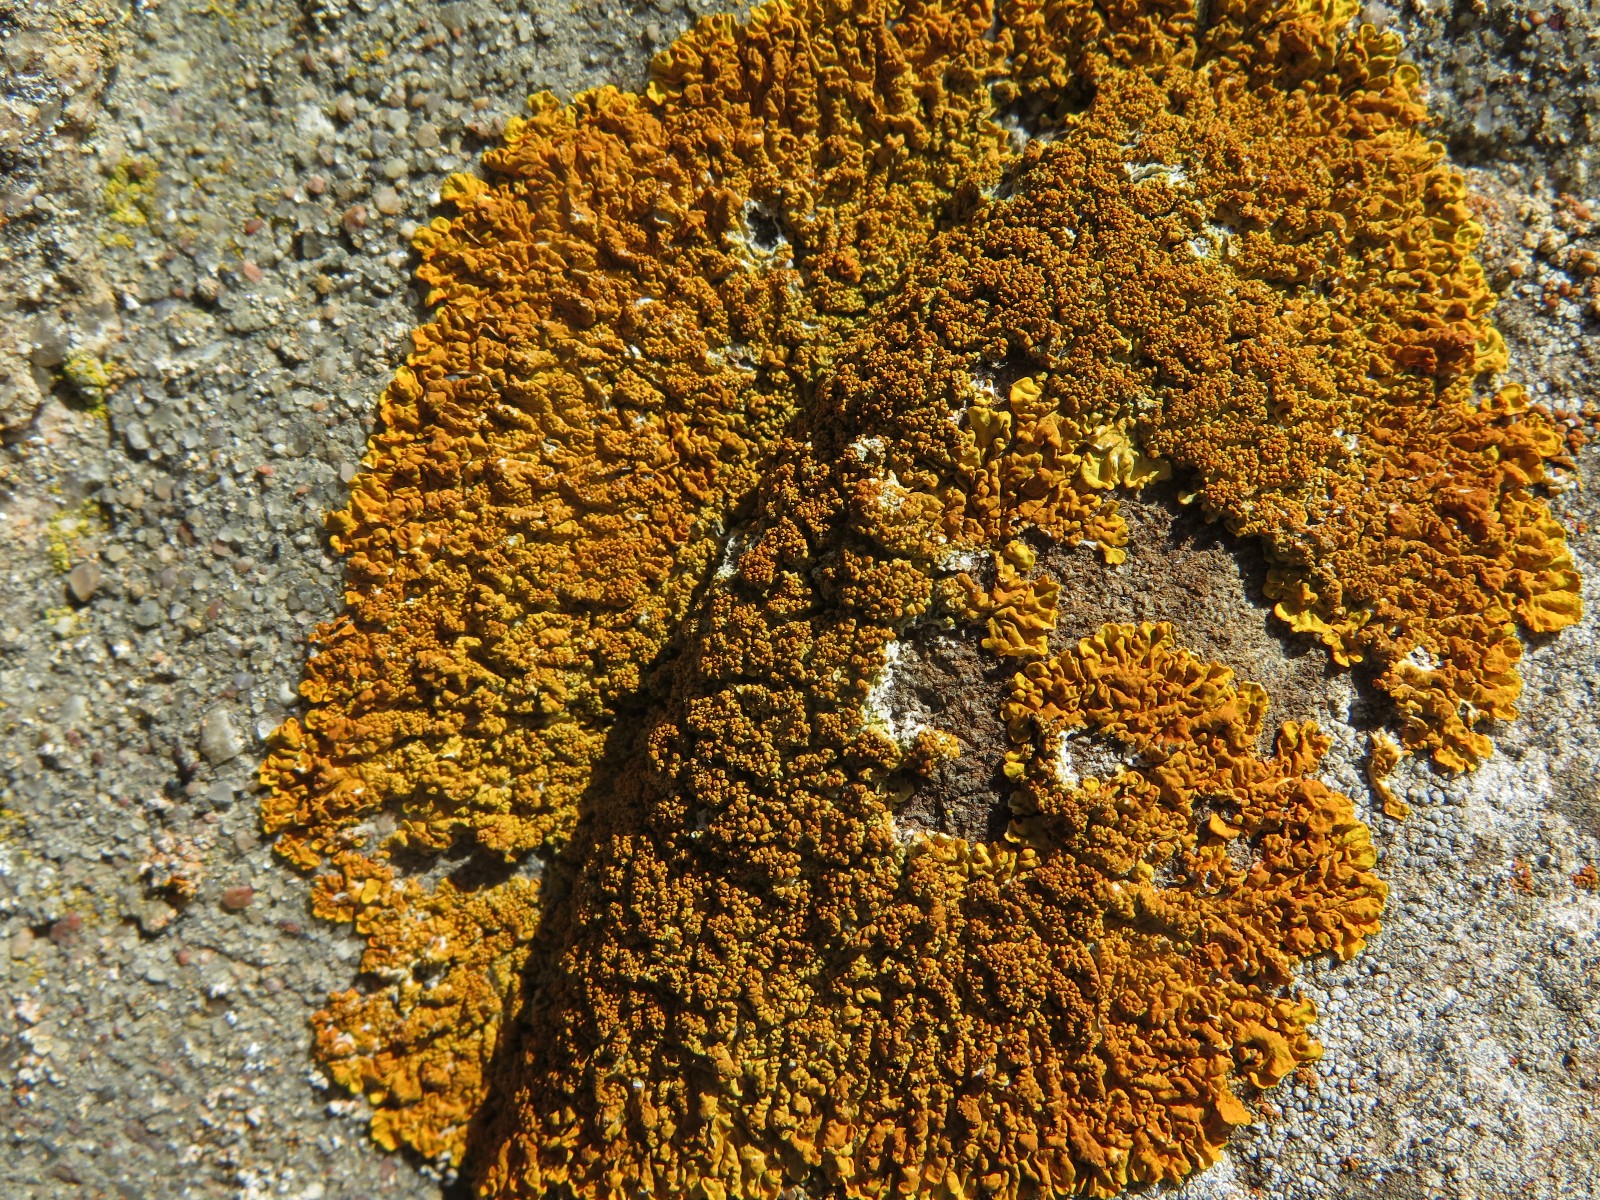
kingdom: Fungi
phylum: Ascomycota
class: Lecanoromycetes
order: Teloschistales
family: Teloschistaceae
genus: Xanthoria
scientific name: Xanthoria calcicola
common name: vortet væggelav
